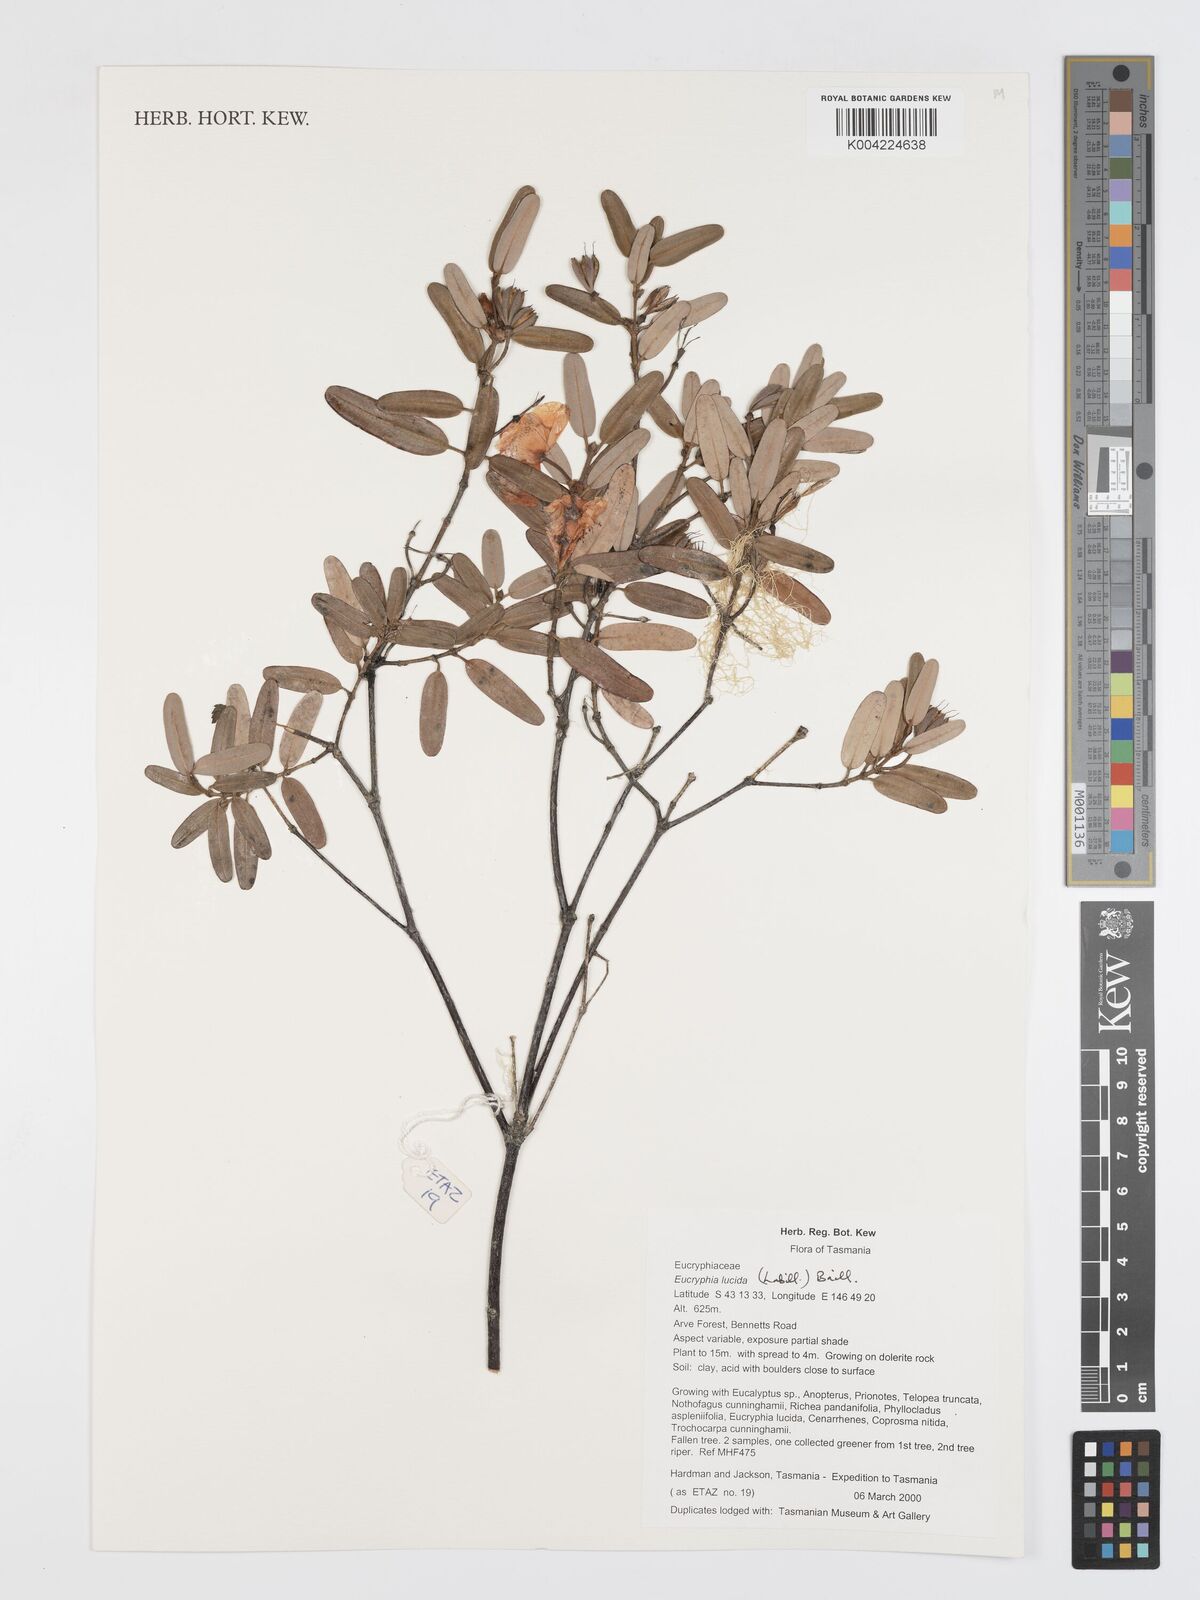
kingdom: Plantae
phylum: Tracheophyta
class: Magnoliopsida
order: Oxalidales
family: Cunoniaceae
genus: Eucryphia
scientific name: Eucryphia lucida
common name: Leatherwood
